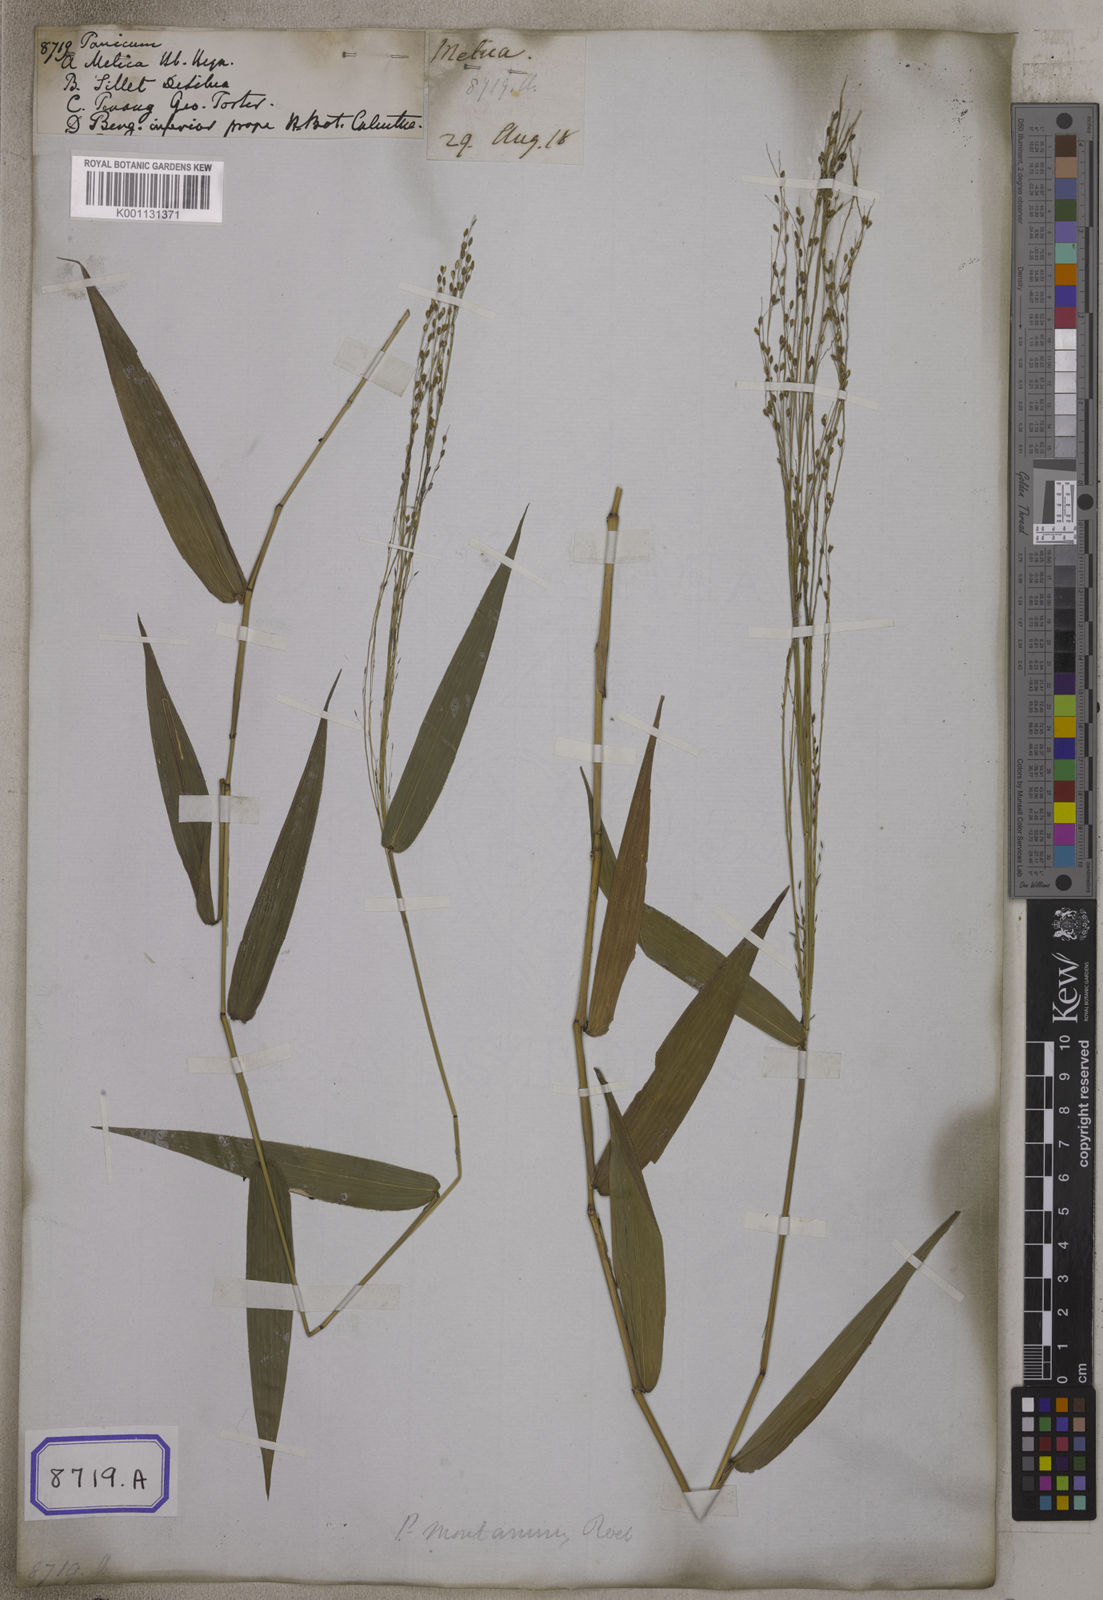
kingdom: Plantae
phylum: Tracheophyta
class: Liliopsida
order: Poales
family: Poaceae
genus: Panicum
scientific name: Panicum
